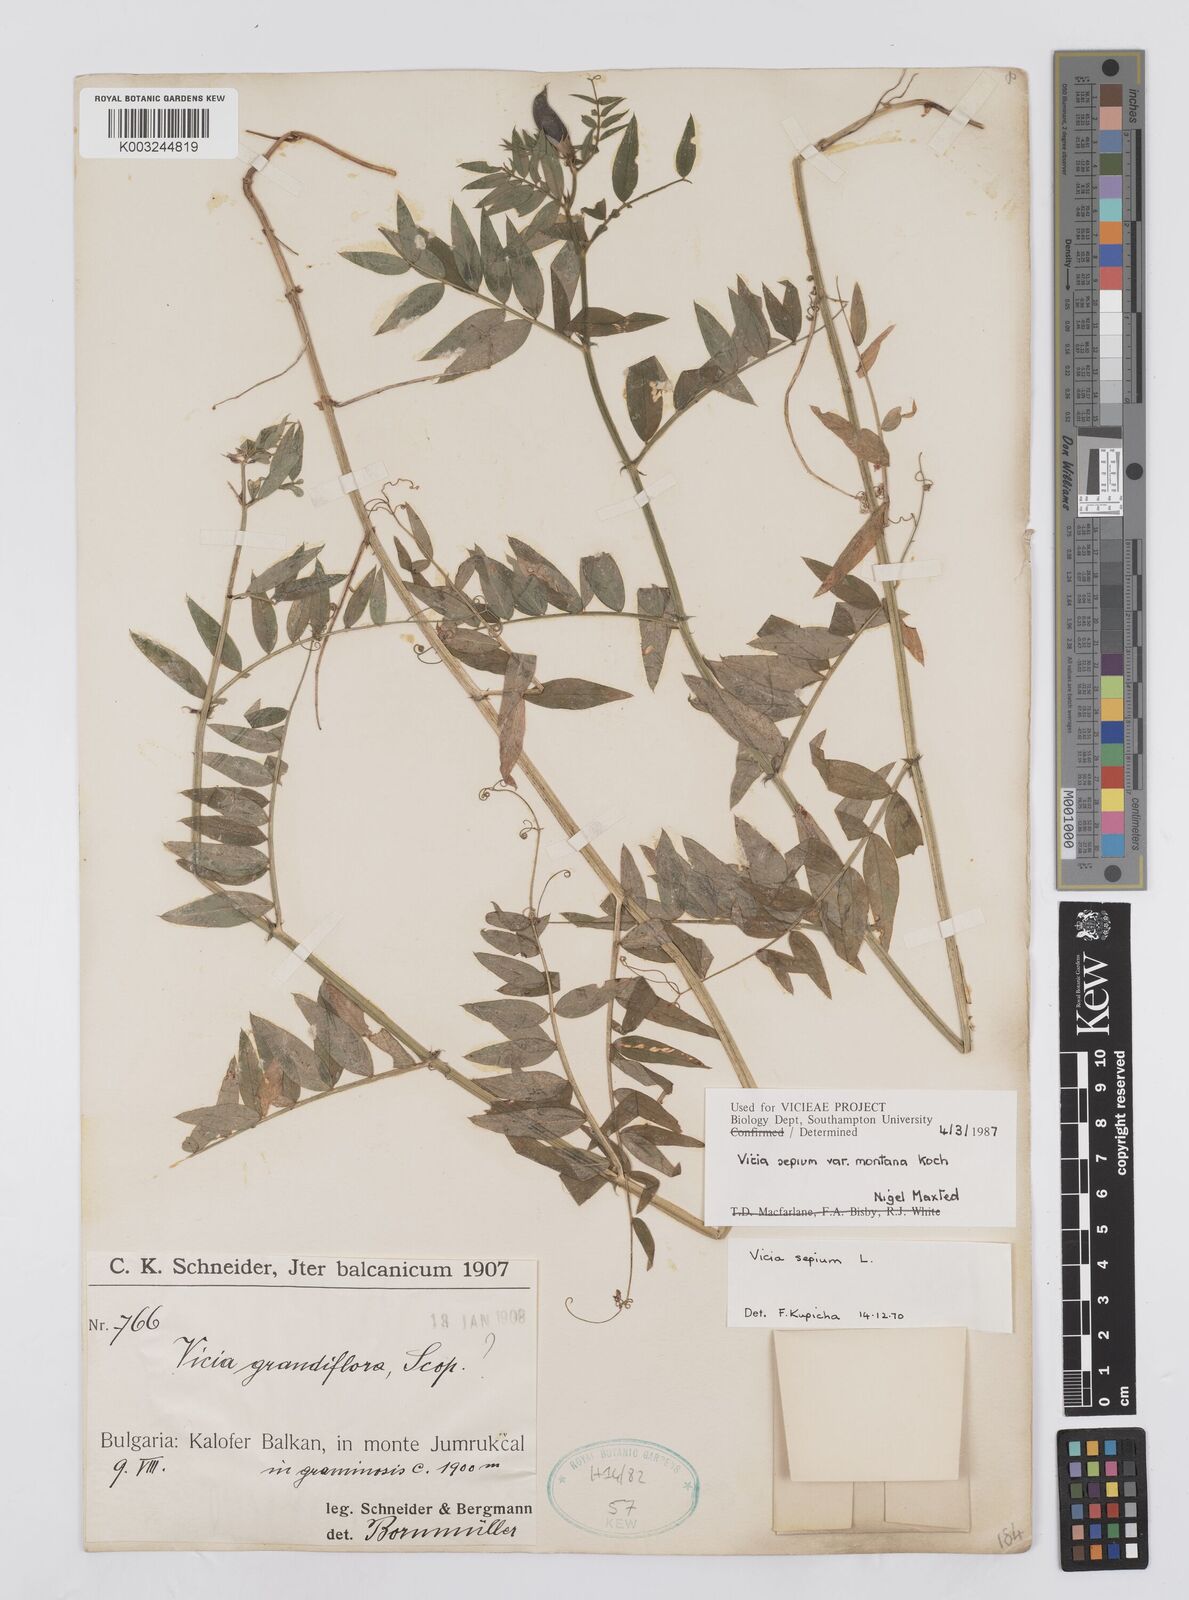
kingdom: Plantae
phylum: Tracheophyta
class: Magnoliopsida
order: Fabales
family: Fabaceae
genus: Vicia
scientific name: Vicia sepium
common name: Bush vetch
